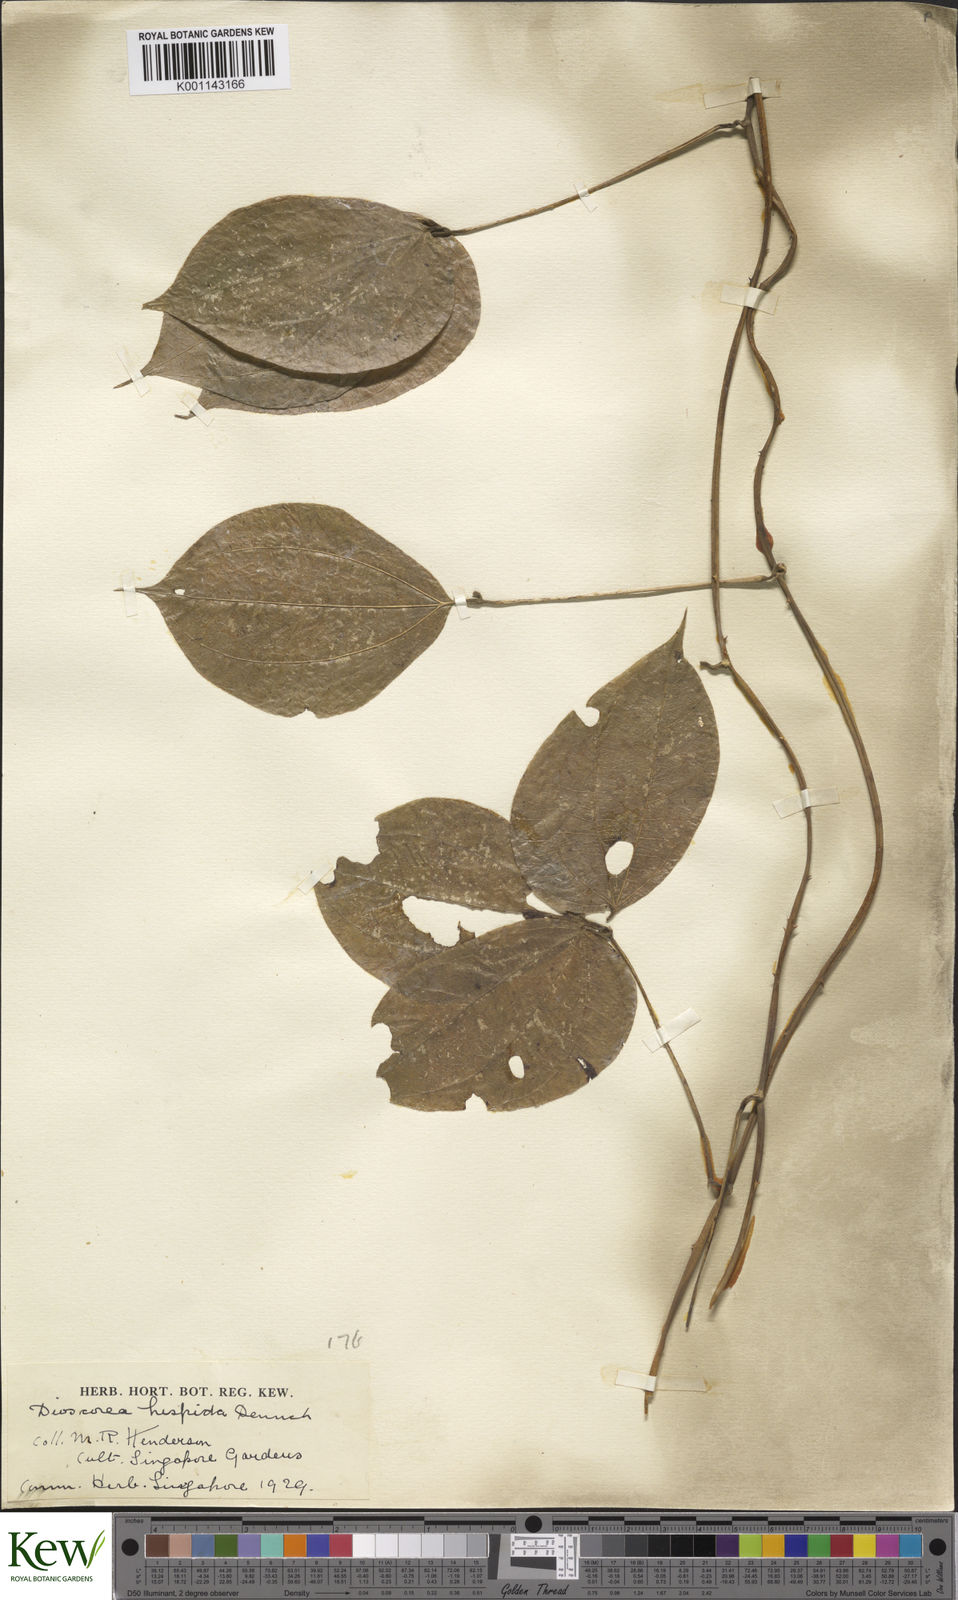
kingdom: Plantae
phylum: Tracheophyta
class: Liliopsida
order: Dioscoreales
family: Dioscoreaceae
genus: Dioscorea
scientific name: Dioscorea hispida
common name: Asiatic bitter yam
